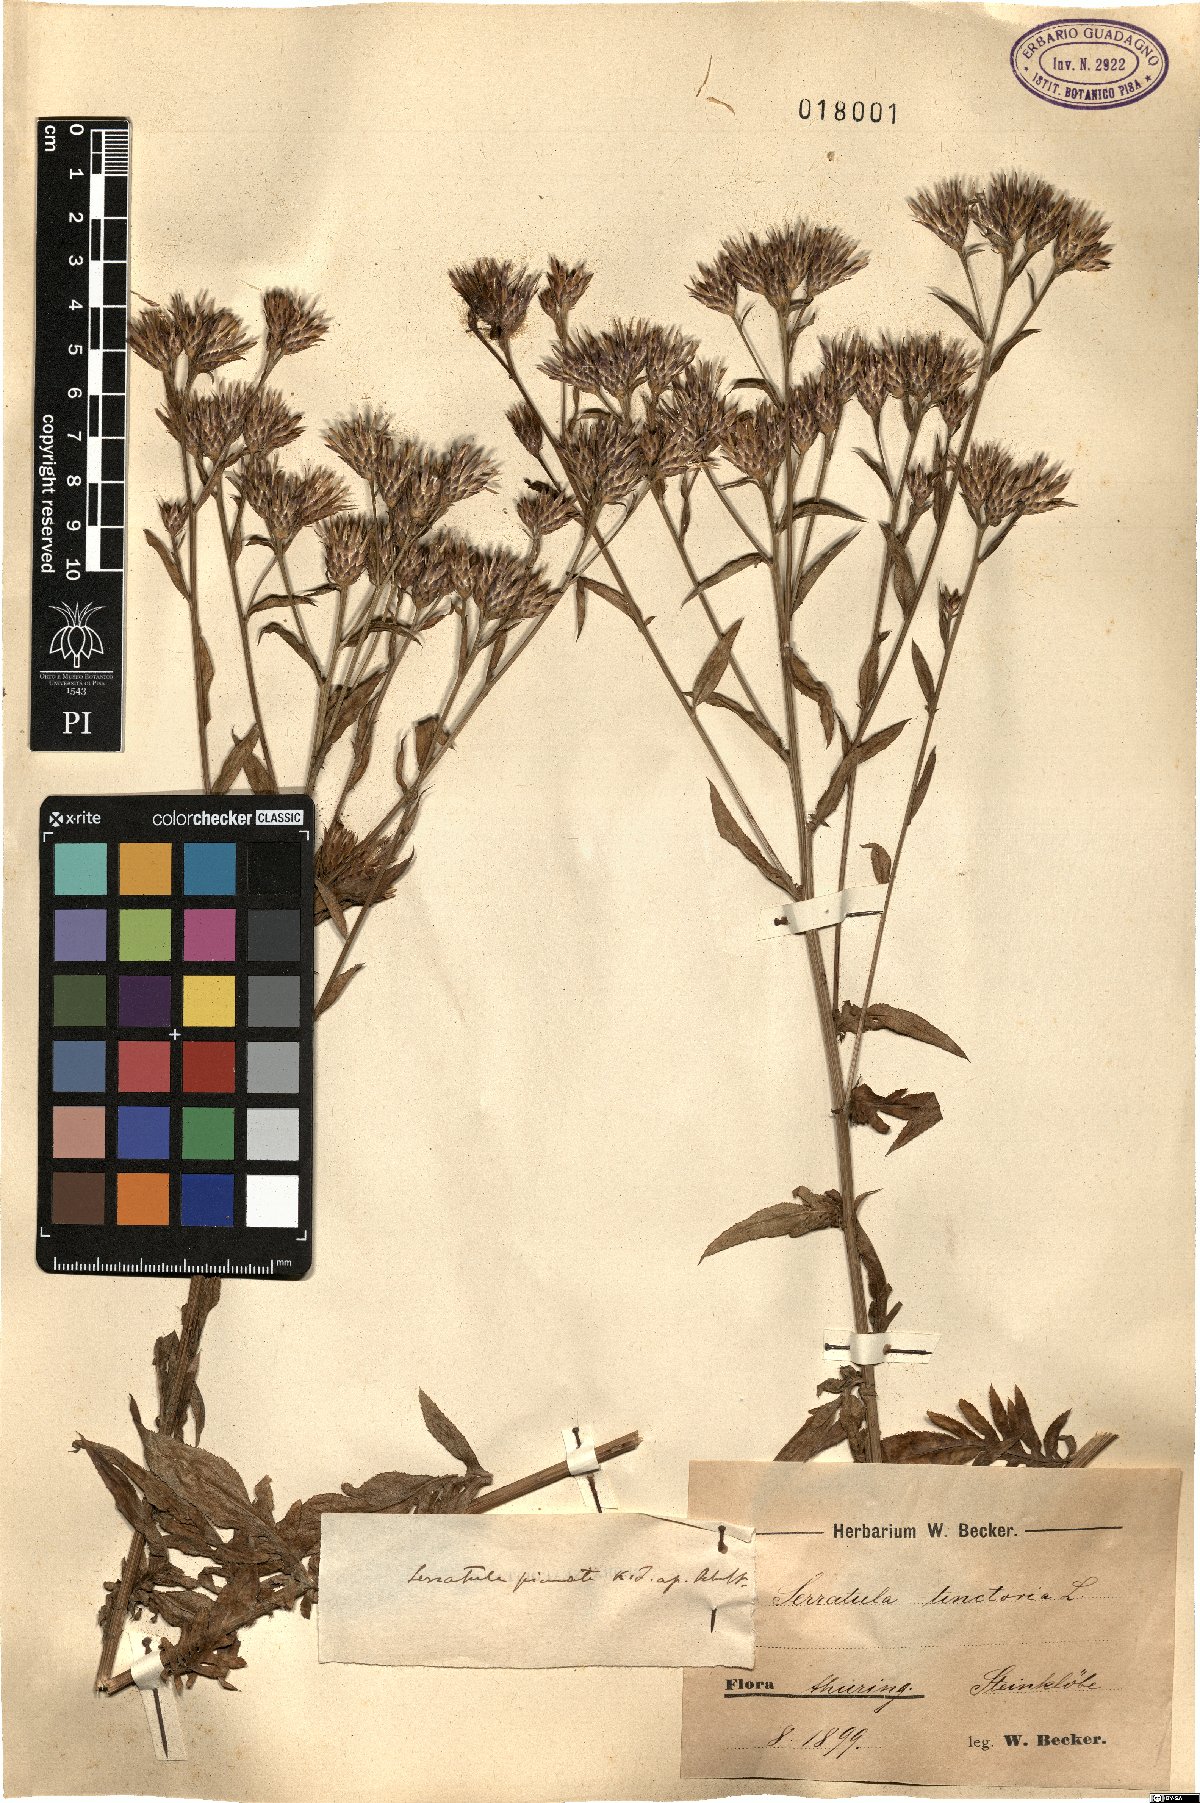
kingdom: Plantae
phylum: Tracheophyta
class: Magnoliopsida
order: Asterales
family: Asteraceae
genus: Serratula
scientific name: Serratula tinctoria
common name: Saw-wort
